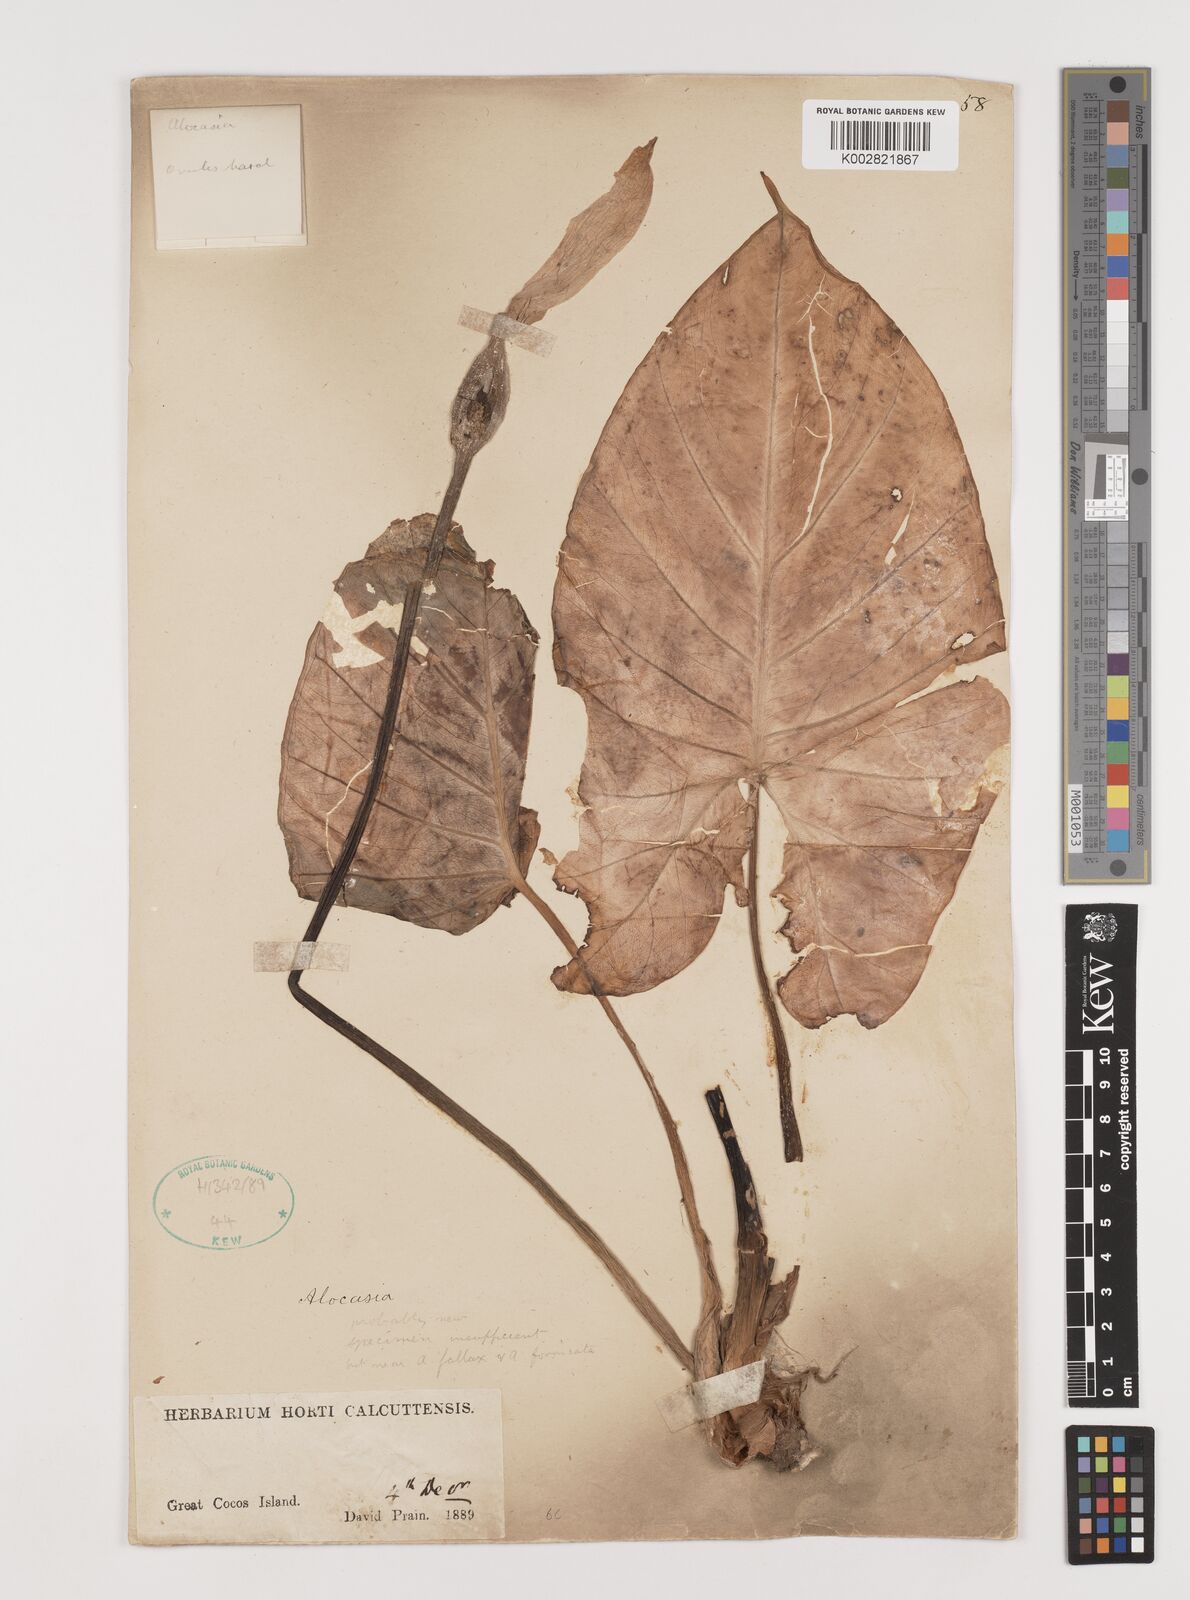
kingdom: Plantae
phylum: Tracheophyta
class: Liliopsida
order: Alismatales
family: Araceae
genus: Alocasia
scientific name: Alocasia
